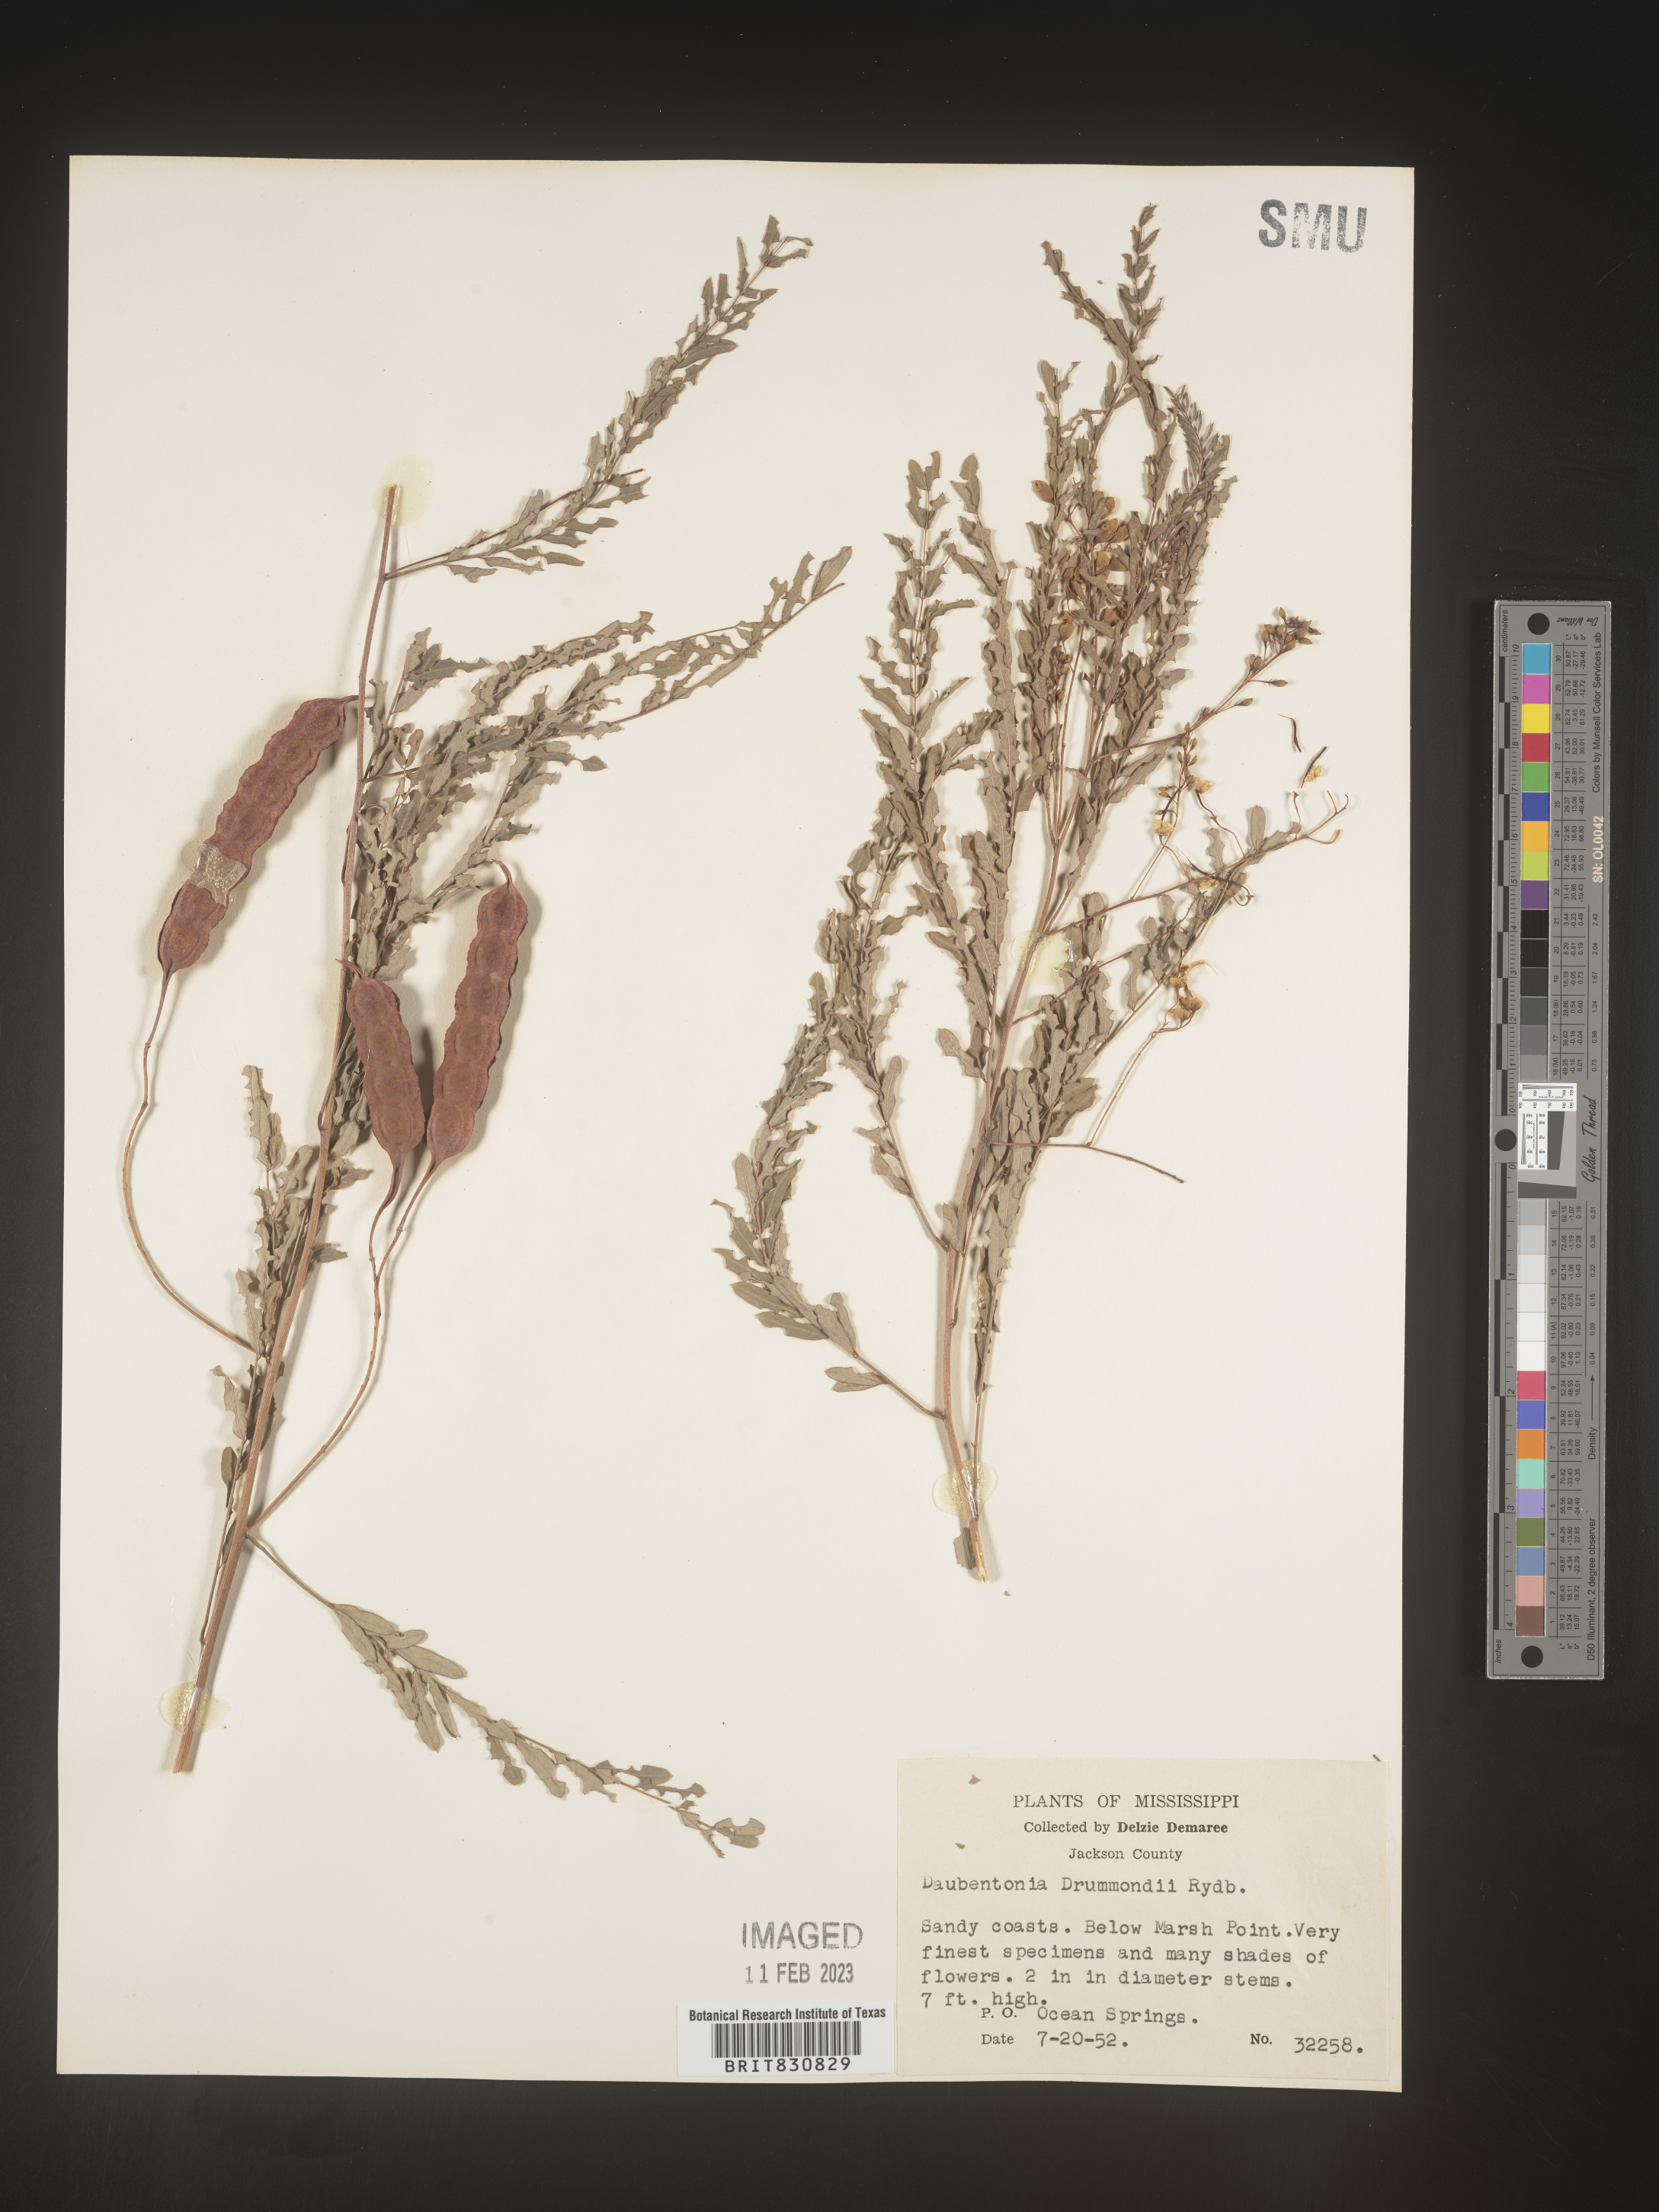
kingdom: Plantae
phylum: Tracheophyta
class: Magnoliopsida
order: Fabales
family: Fabaceae
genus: Sesbania
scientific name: Sesbania drummondii
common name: Poison-bean
